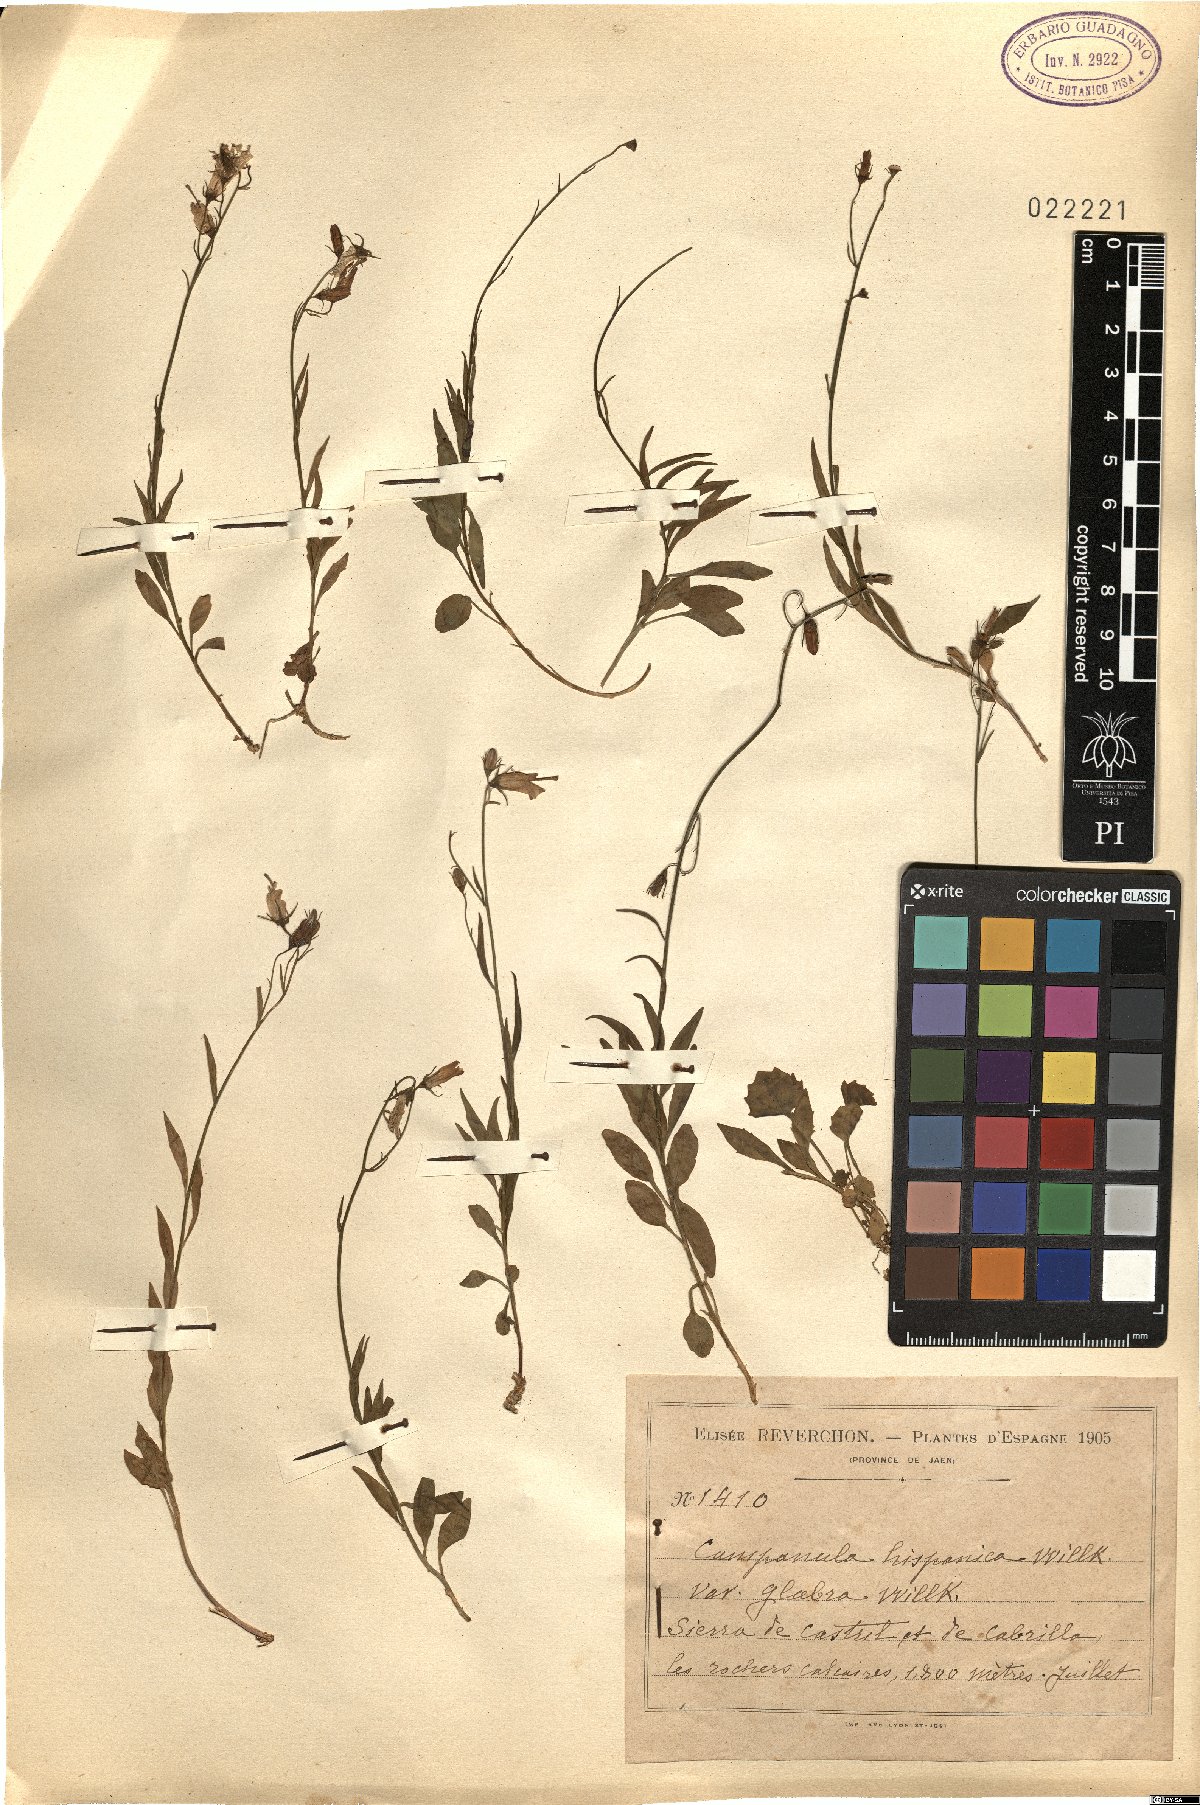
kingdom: Plantae
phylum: Tracheophyta
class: Magnoliopsida
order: Asterales
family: Campanulaceae
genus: Campanula
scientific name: Campanula hispanica
